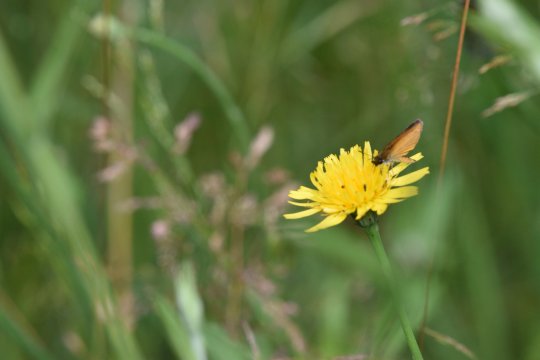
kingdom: Animalia
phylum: Arthropoda
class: Insecta
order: Lepidoptera
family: Hesperiidae
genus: Ancyloxypha
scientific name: Ancyloxypha numitor
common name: Least Skipper
